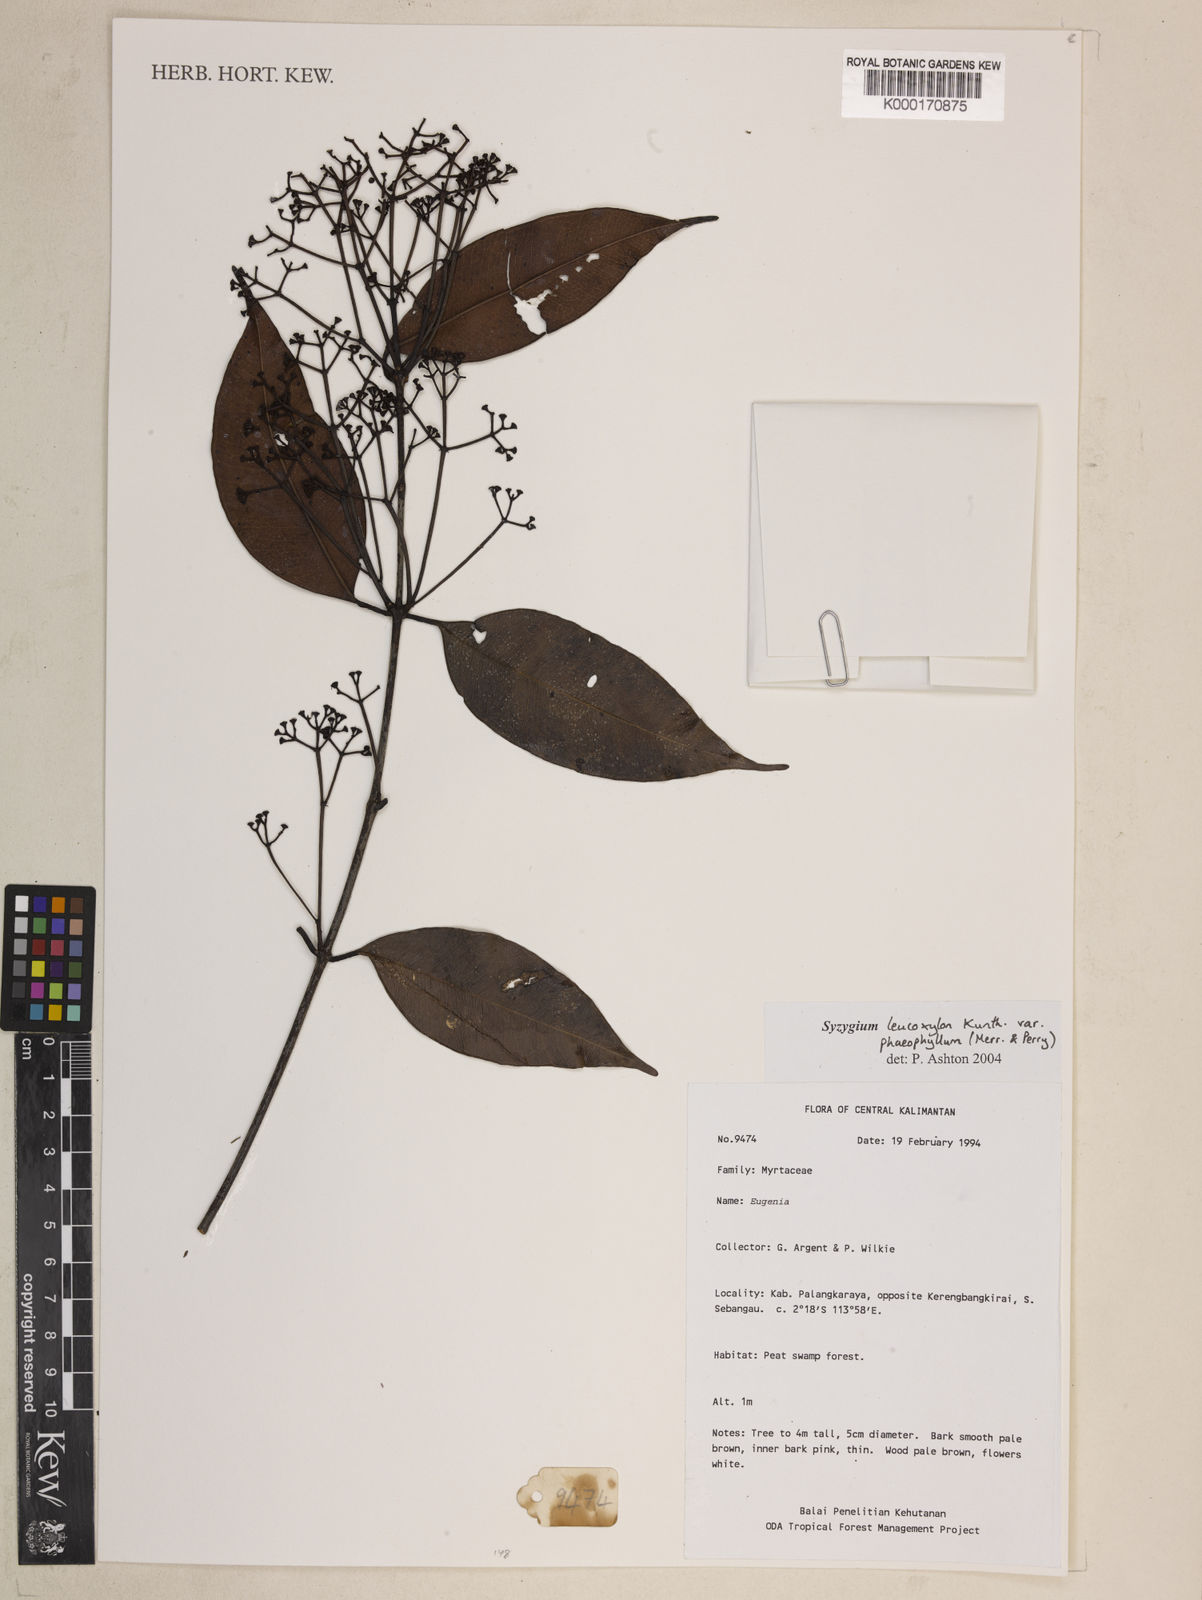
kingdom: Plantae
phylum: Tracheophyta
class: Magnoliopsida
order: Myrtales
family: Myrtaceae
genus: Syzygium
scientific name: Syzygium nigricans
